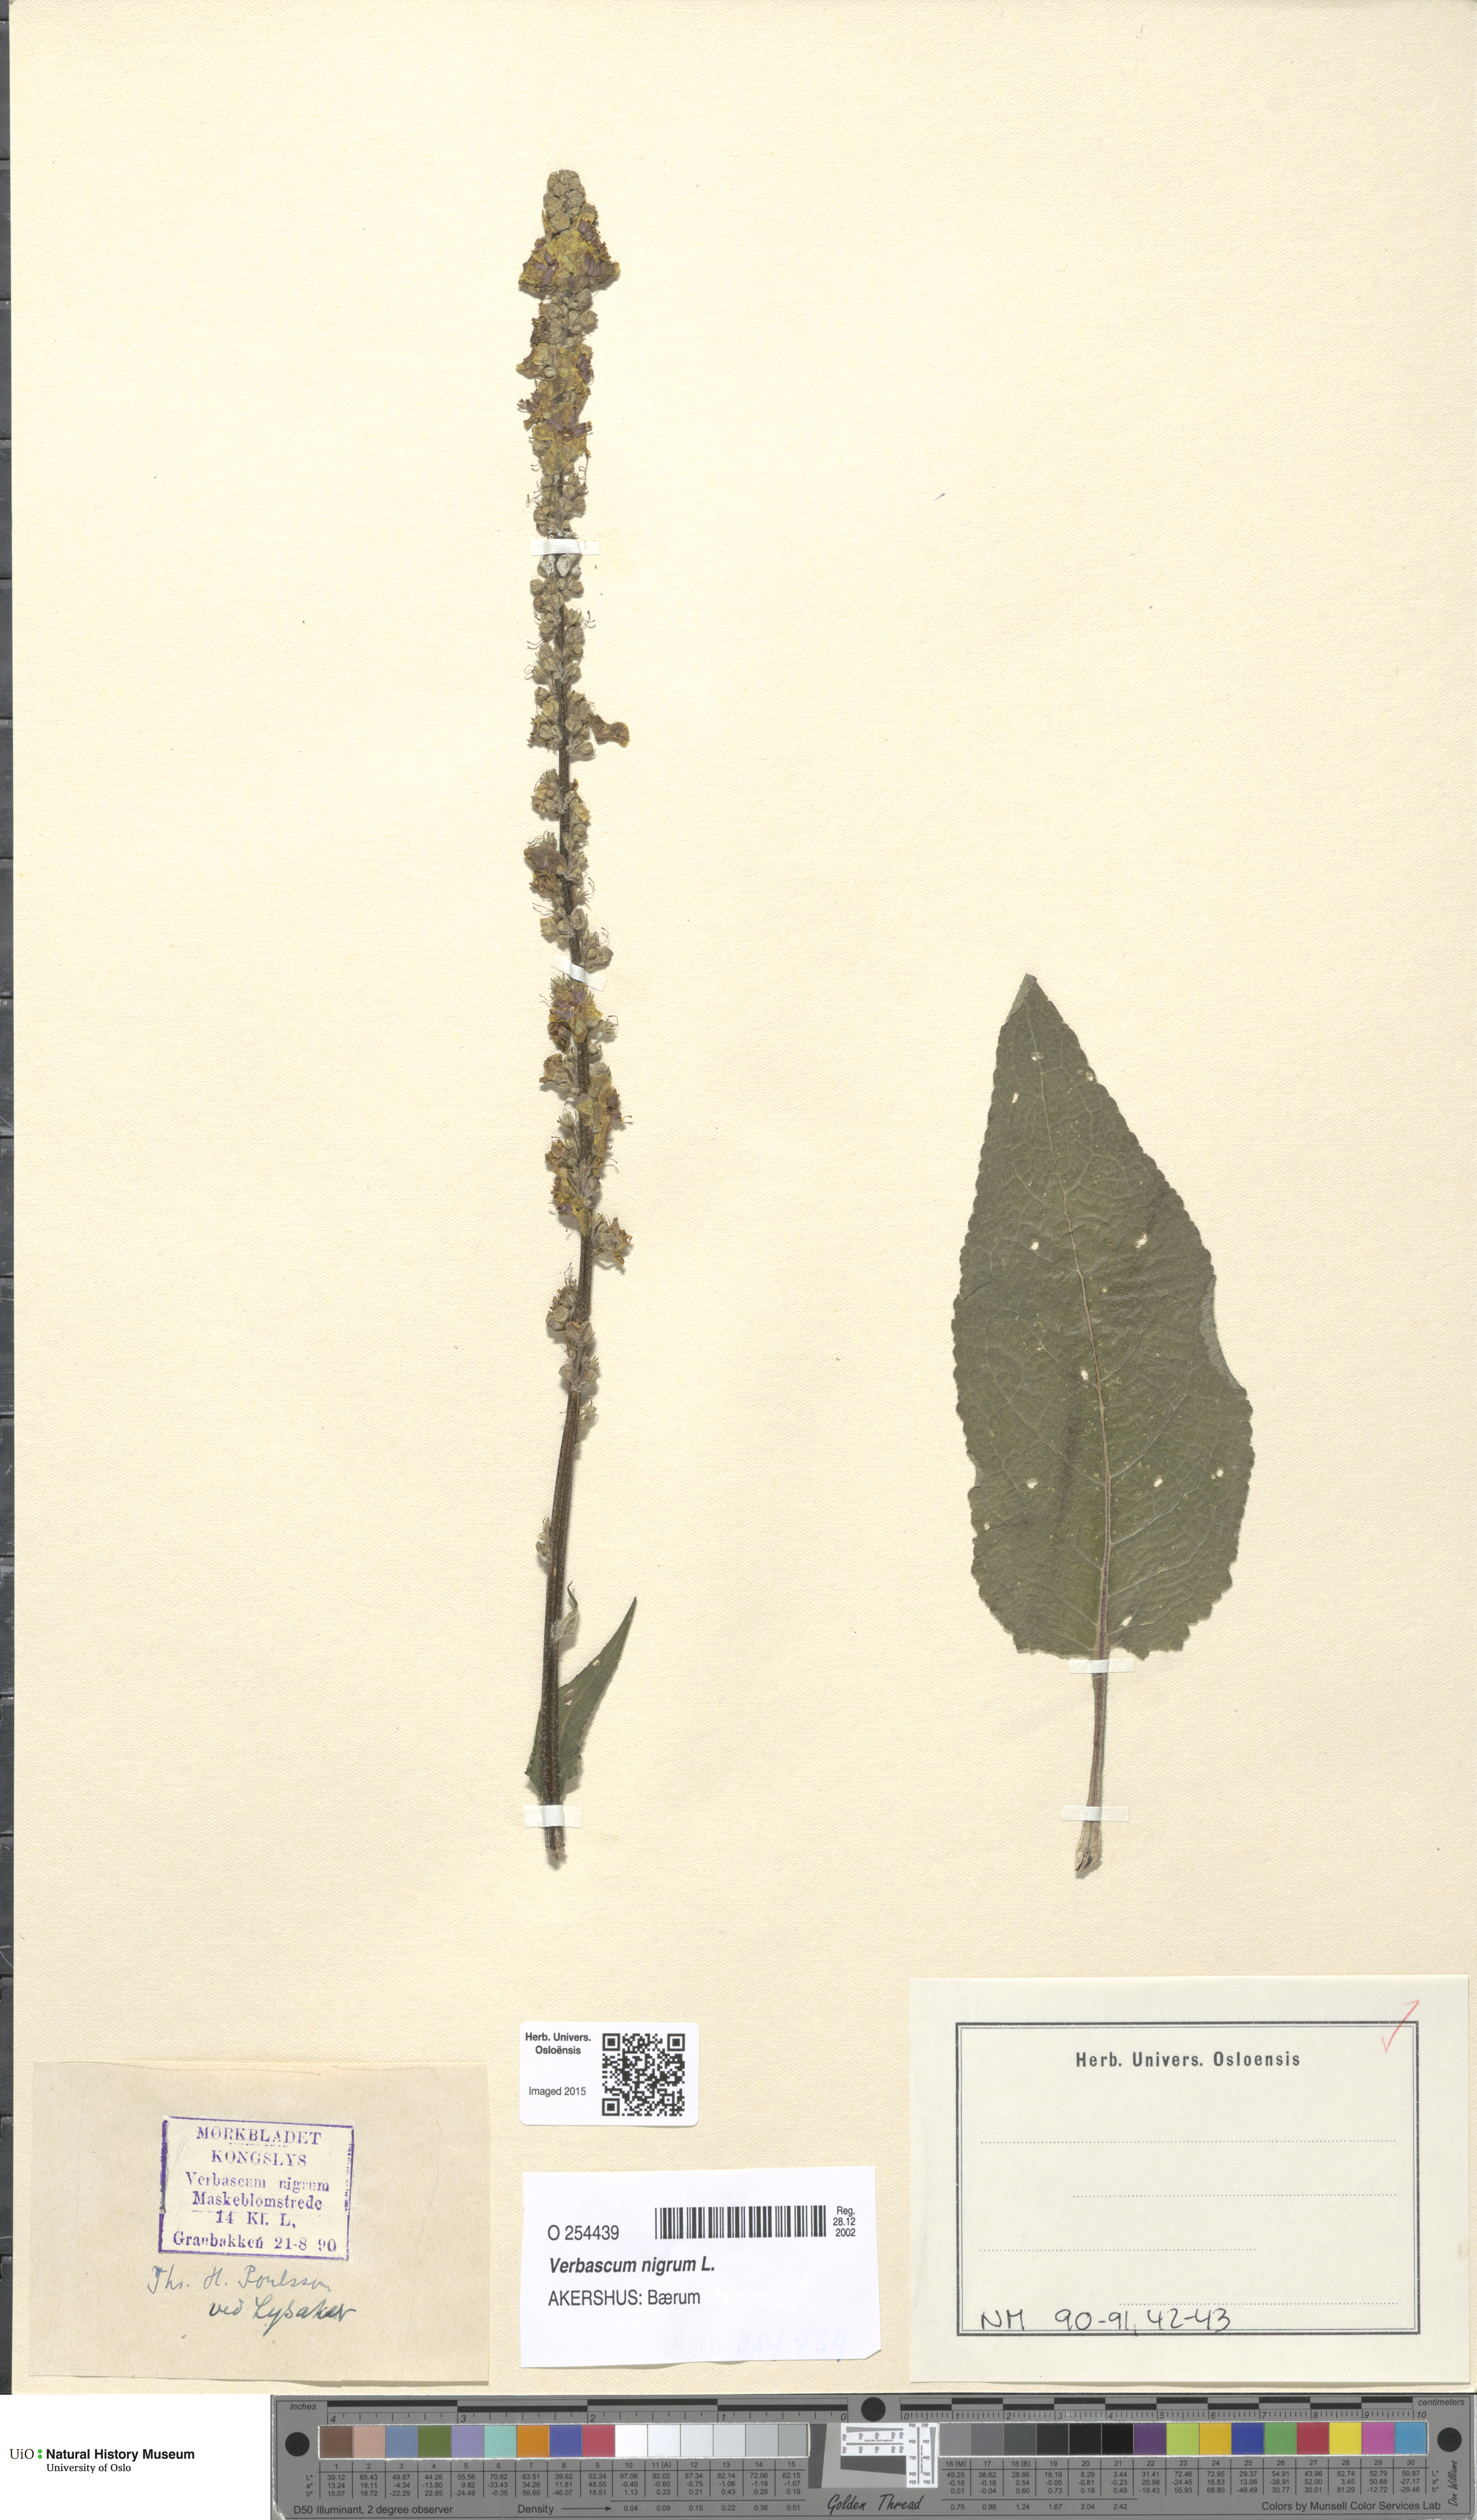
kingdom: Plantae
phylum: Tracheophyta
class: Magnoliopsida
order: Lamiales
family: Scrophulariaceae
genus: Verbascum
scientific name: Verbascum nigrum
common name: Dark mullein
